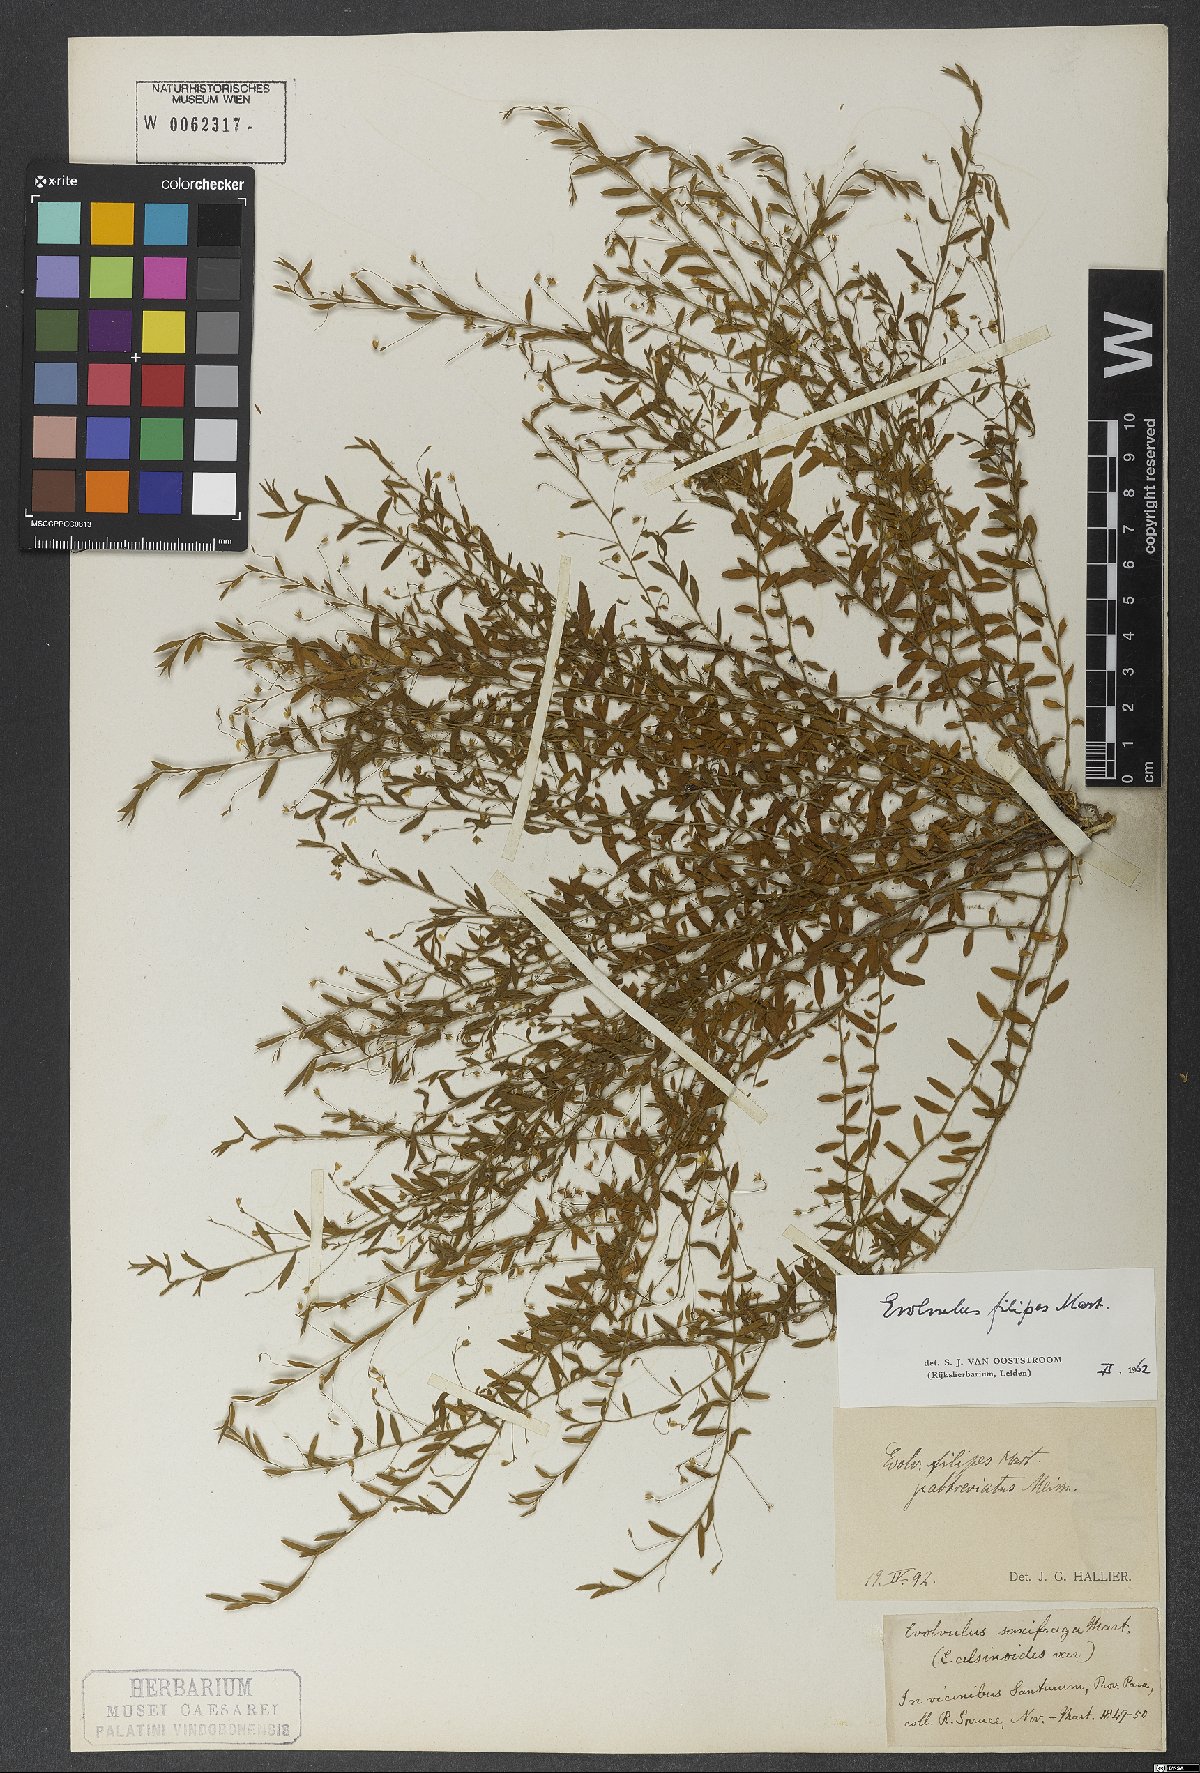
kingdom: Plantae
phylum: Tracheophyta
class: Magnoliopsida
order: Solanales
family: Convolvulaceae
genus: Evolvulus
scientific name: Evolvulus filipes
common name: Maryland dwarf morning-glory
